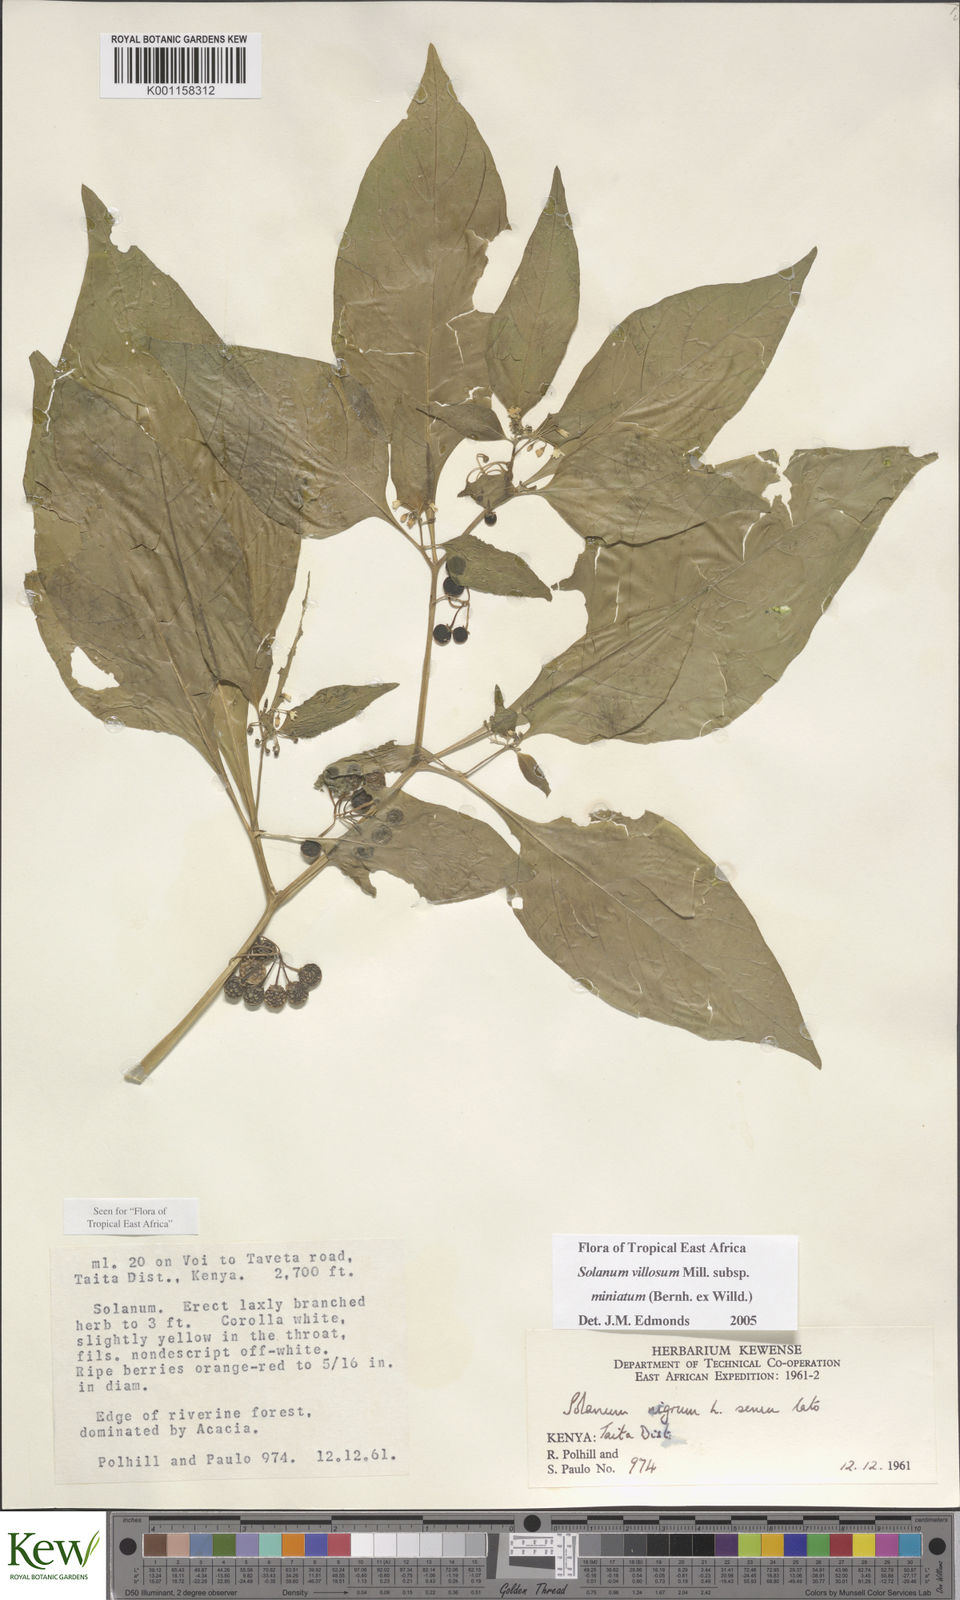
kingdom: Plantae
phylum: Tracheophyta
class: Magnoliopsida
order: Solanales
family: Solanaceae
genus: Solanum
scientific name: Solanum villosum
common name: Red nightshade
